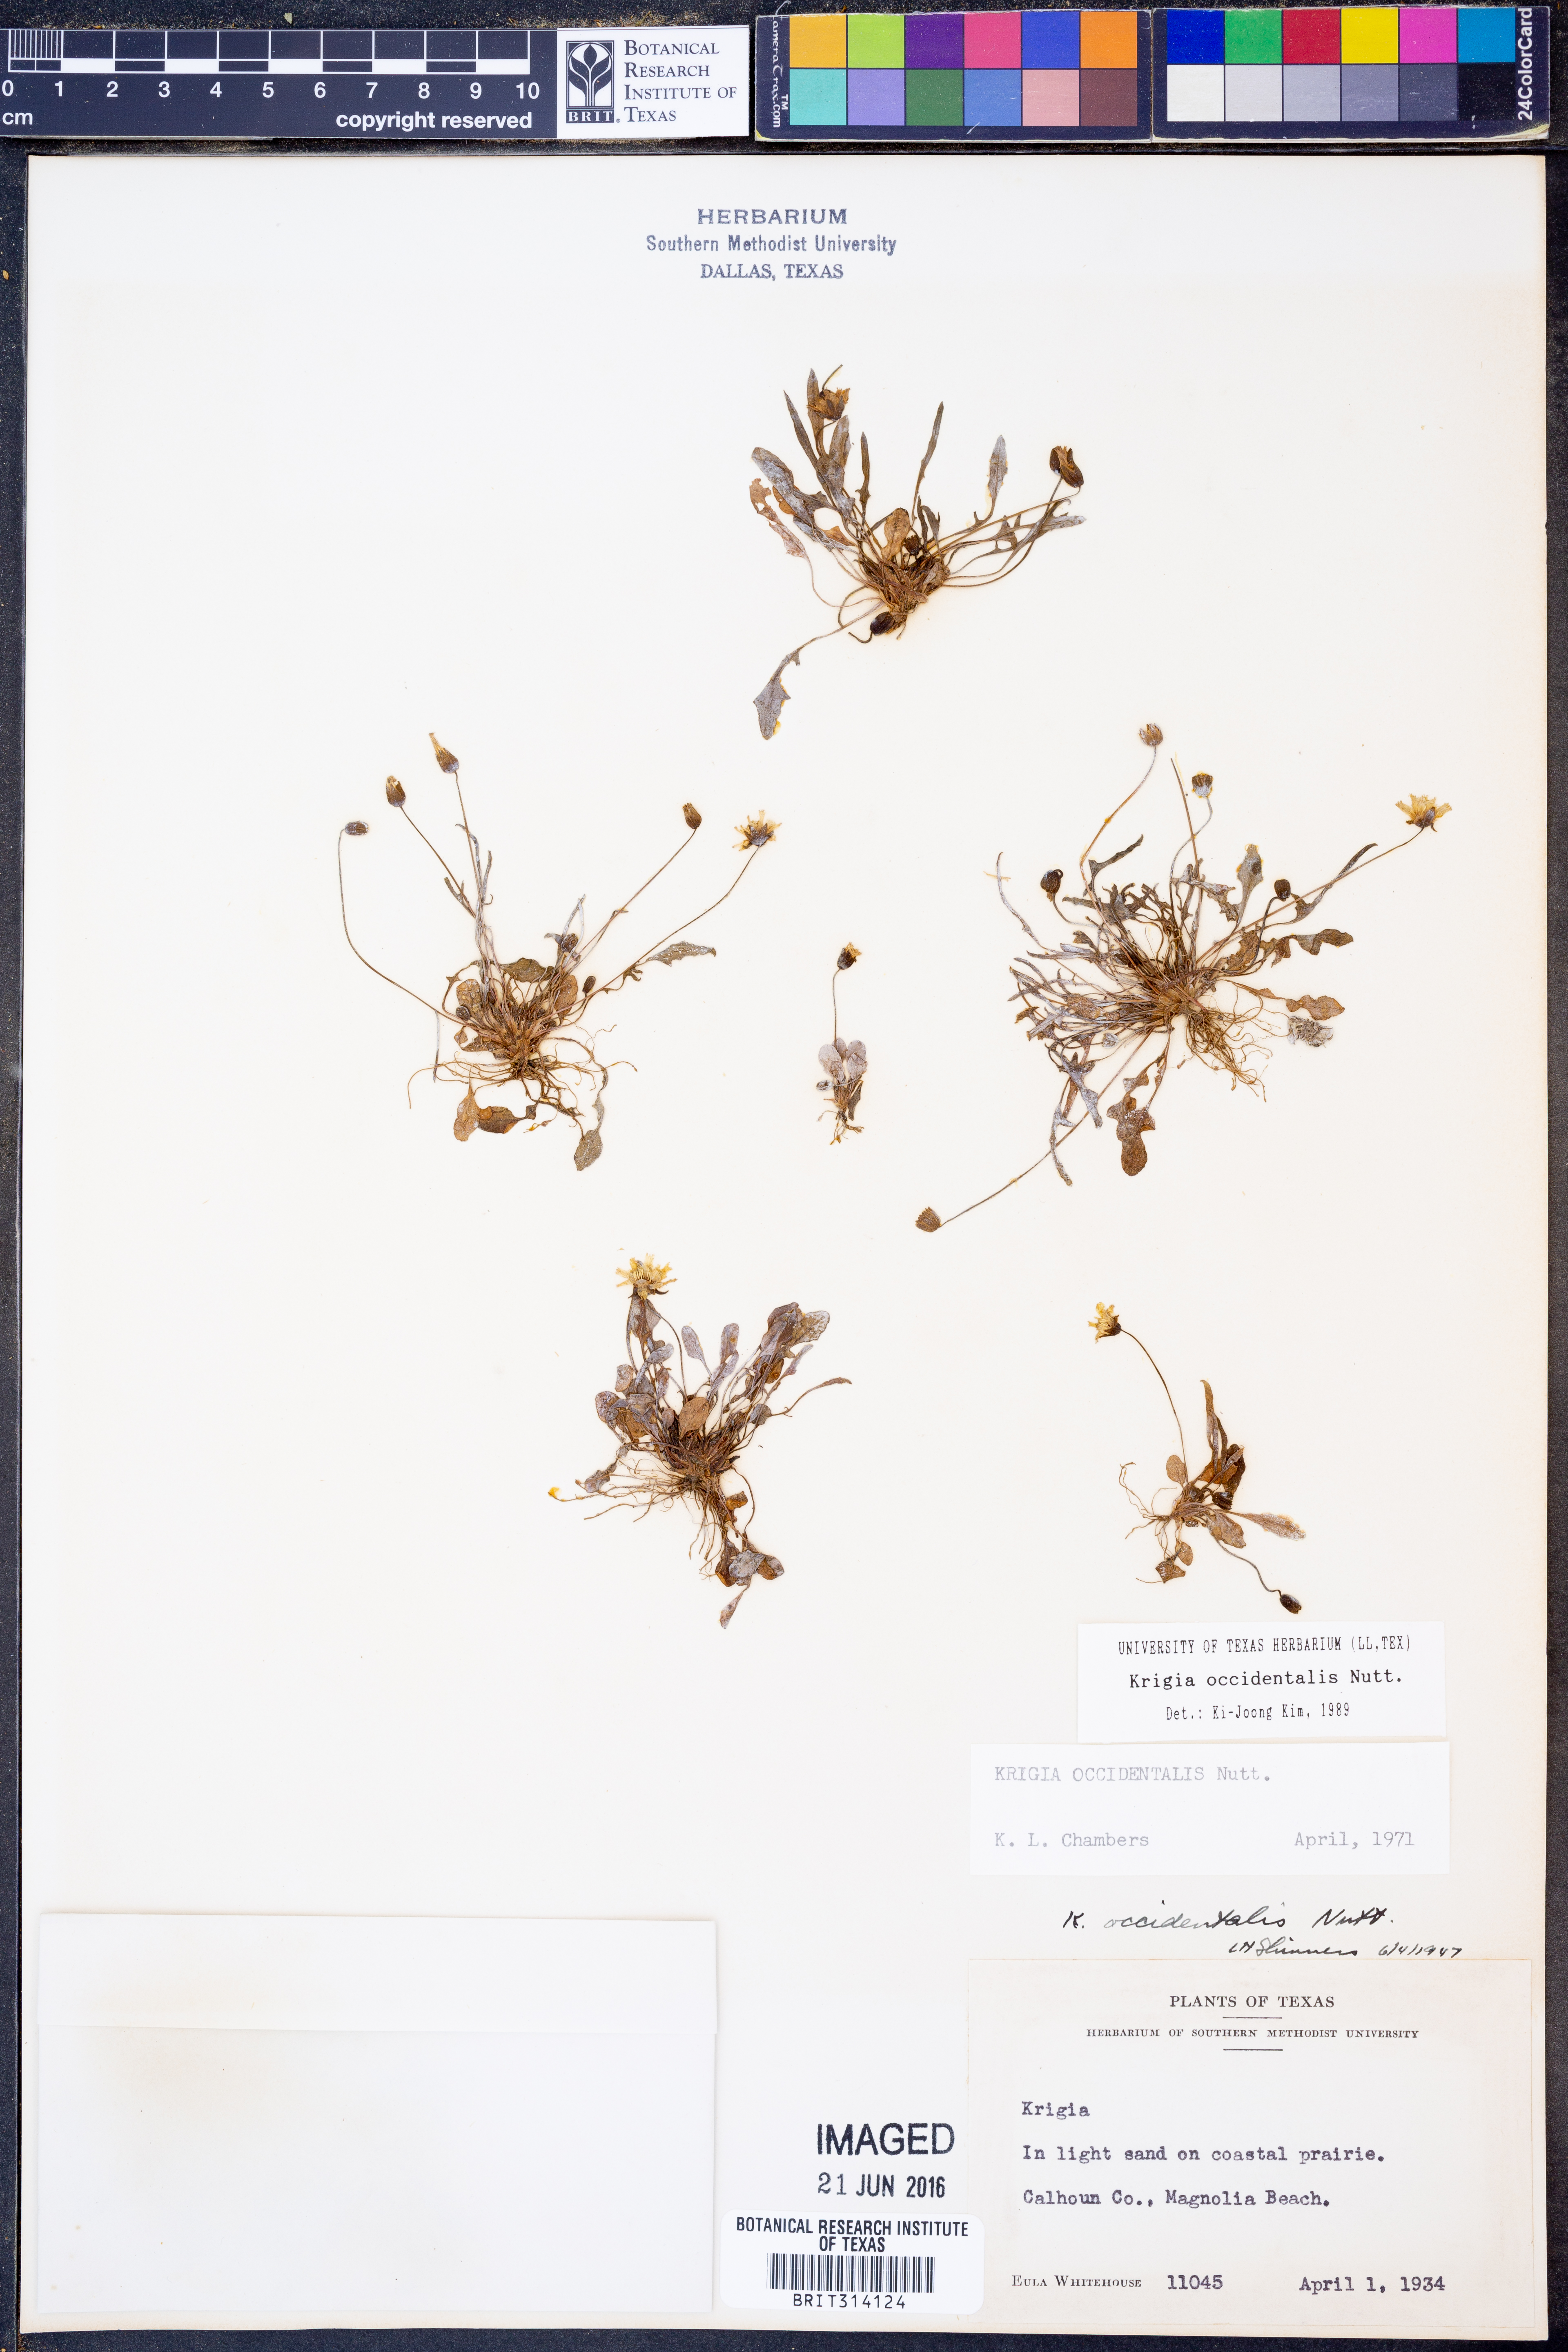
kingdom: Plantae
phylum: Tracheophyta
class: Magnoliopsida
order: Asterales
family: Asteraceae
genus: Krigia
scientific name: Krigia occidentalis
